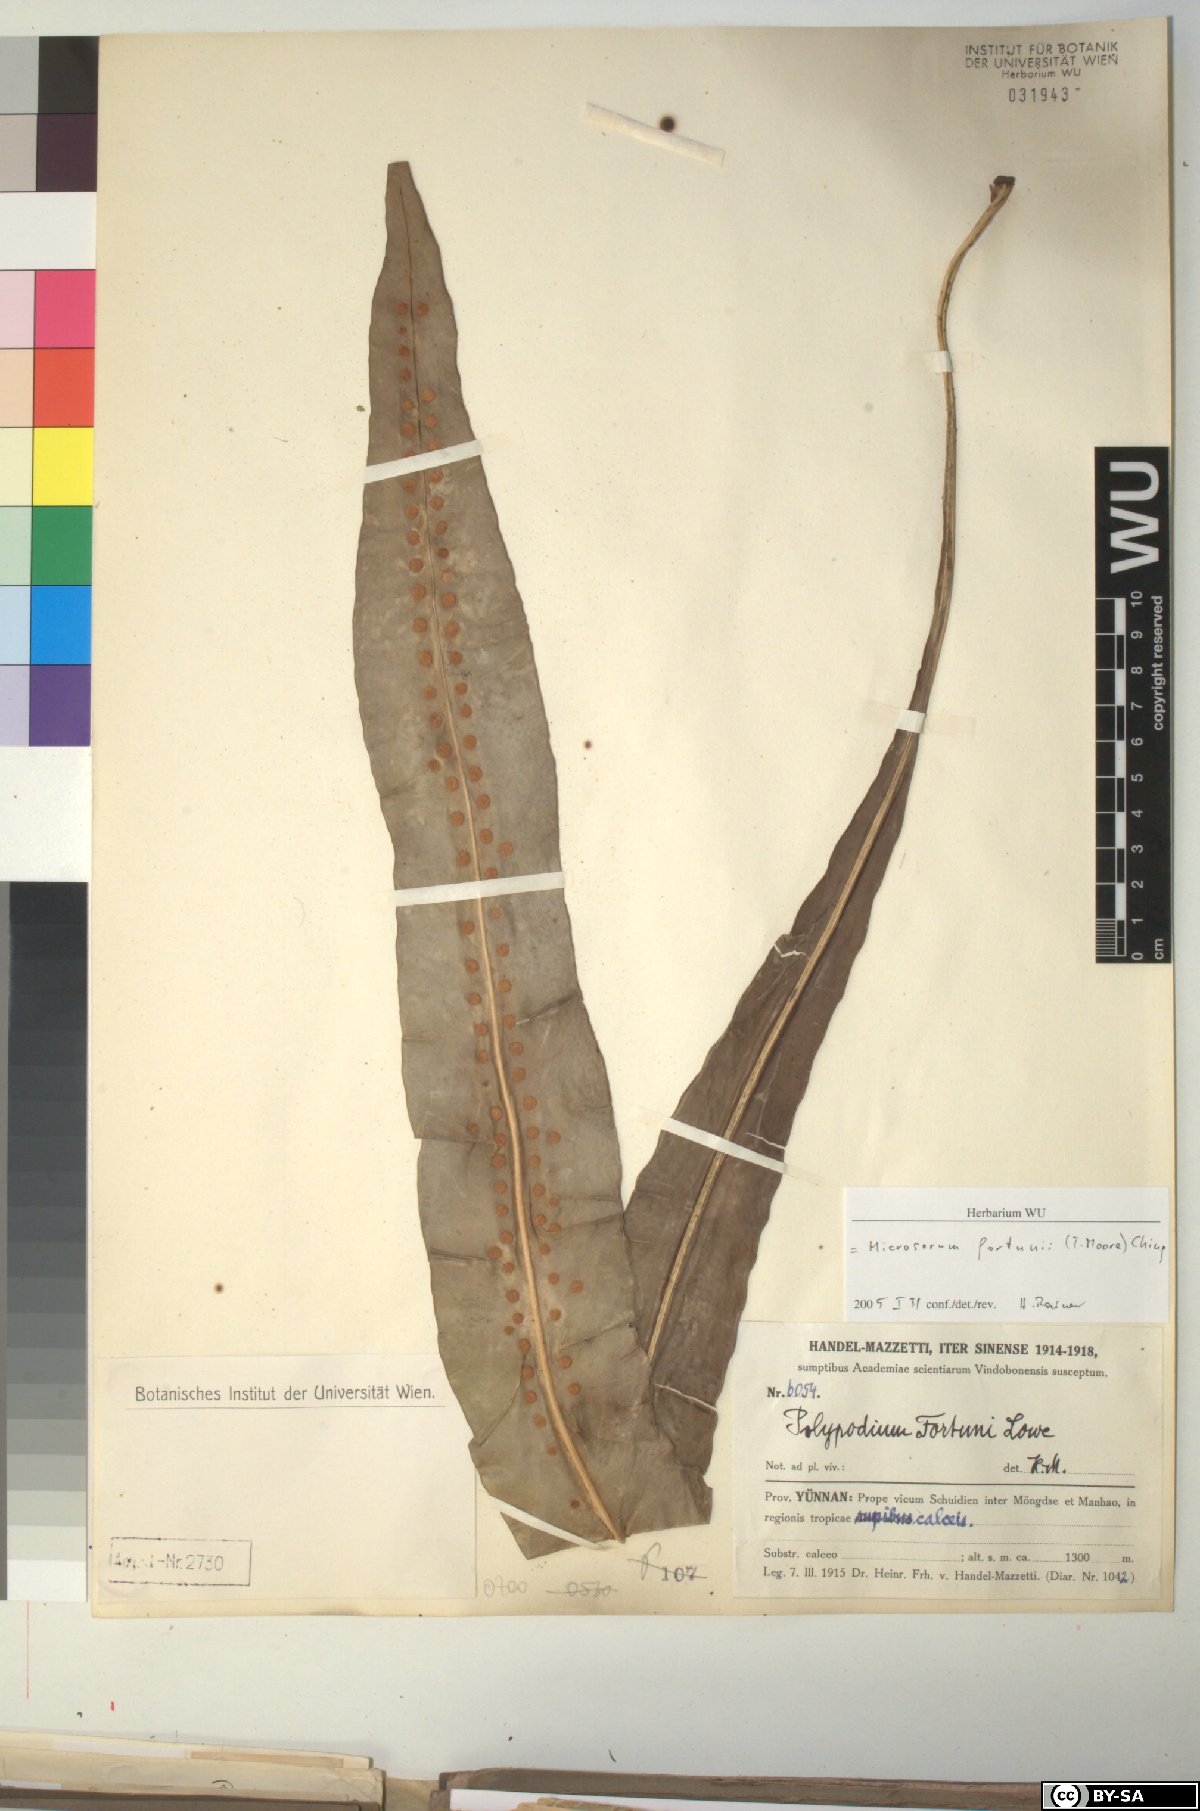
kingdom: Plantae
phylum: Tracheophyta
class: Polypodiopsida
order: Polypodiales
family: Polypodiaceae
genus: Lepisorus
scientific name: Lepisorus fortuni
